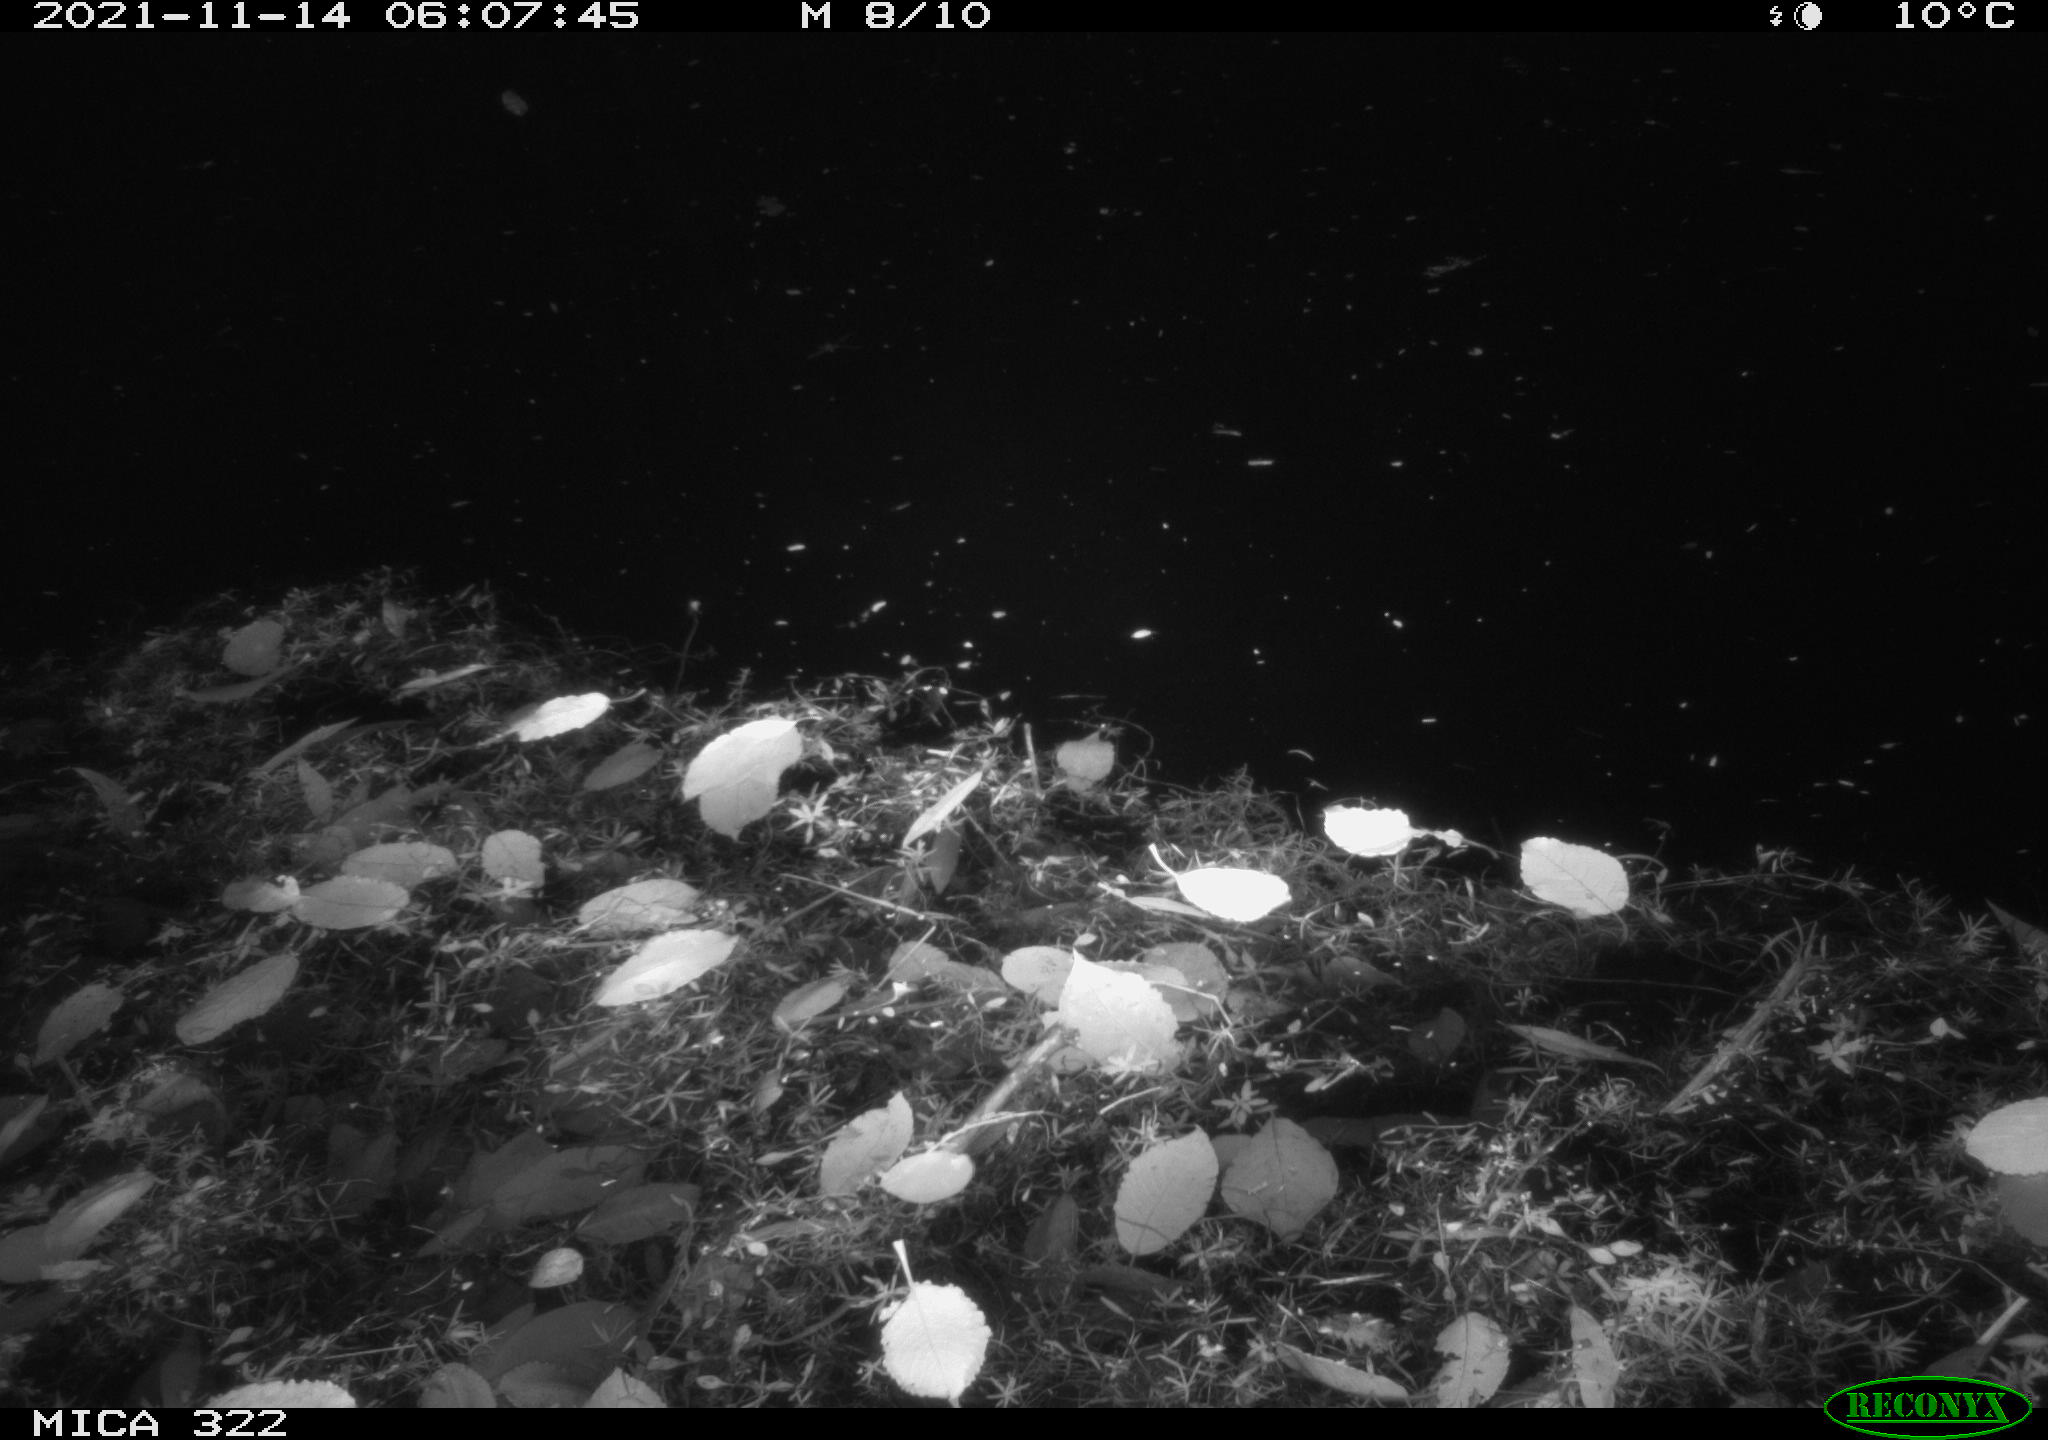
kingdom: Animalia
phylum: Chordata
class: Mammalia
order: Rodentia
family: Muridae
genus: Rattus
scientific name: Rattus norvegicus
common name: Brown rat
